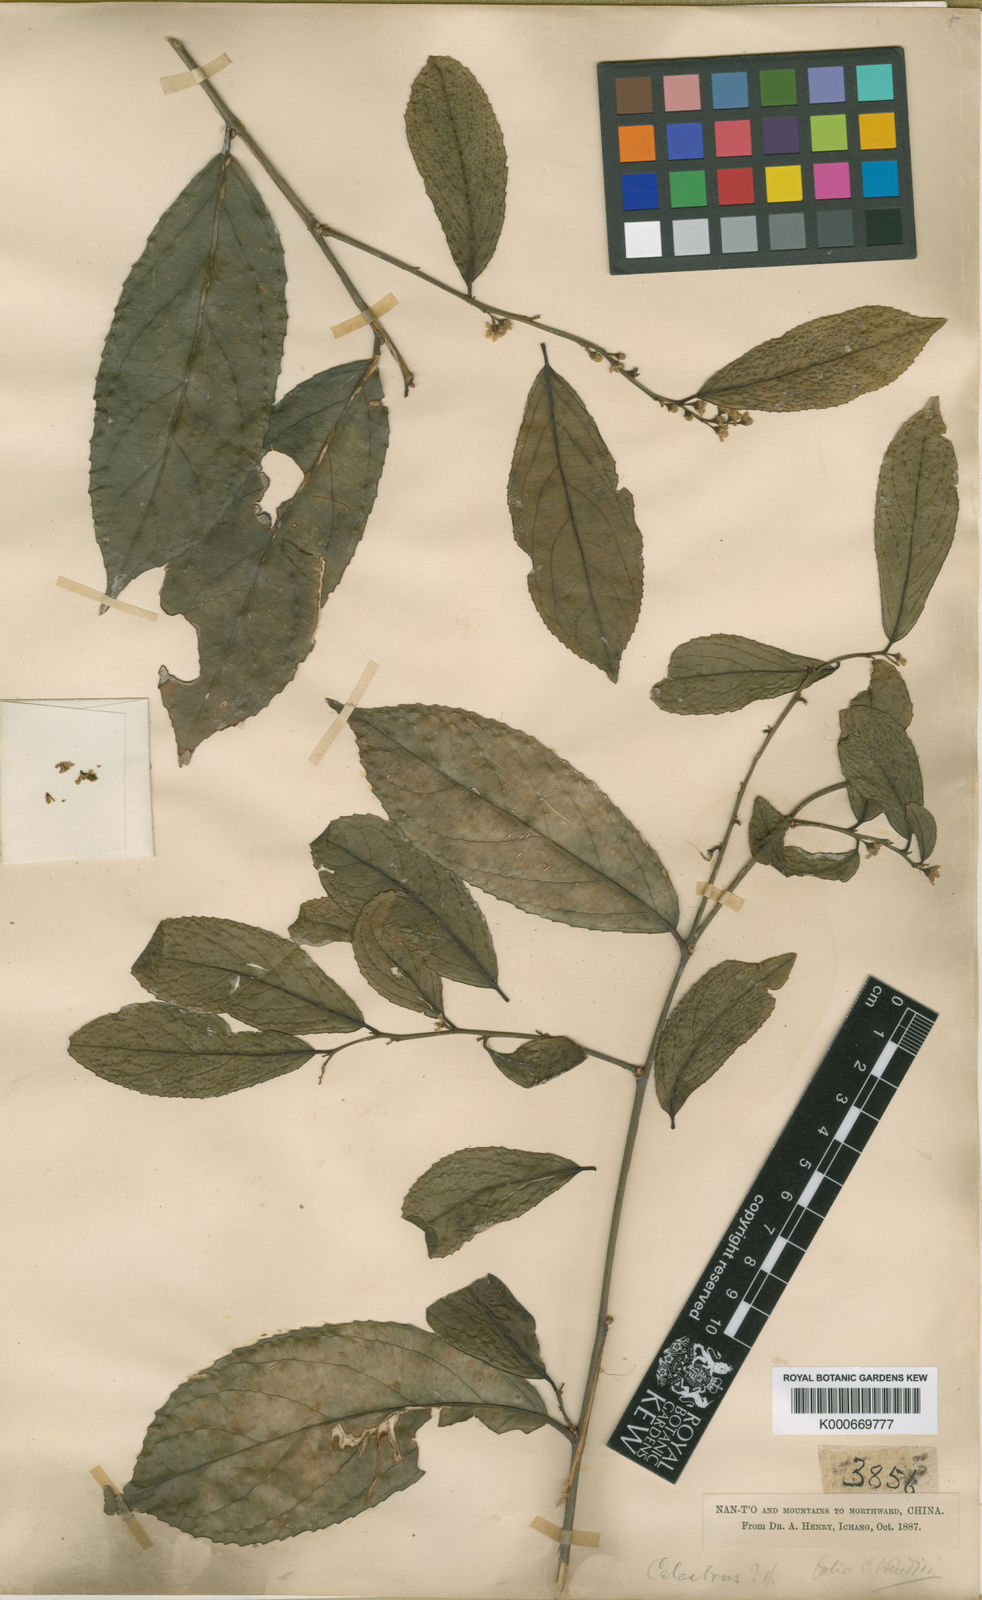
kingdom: Plantae
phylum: Tracheophyta
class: Magnoliopsida
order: Celastrales
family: Celastraceae
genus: Celastrus
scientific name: Celastrus hindsii
